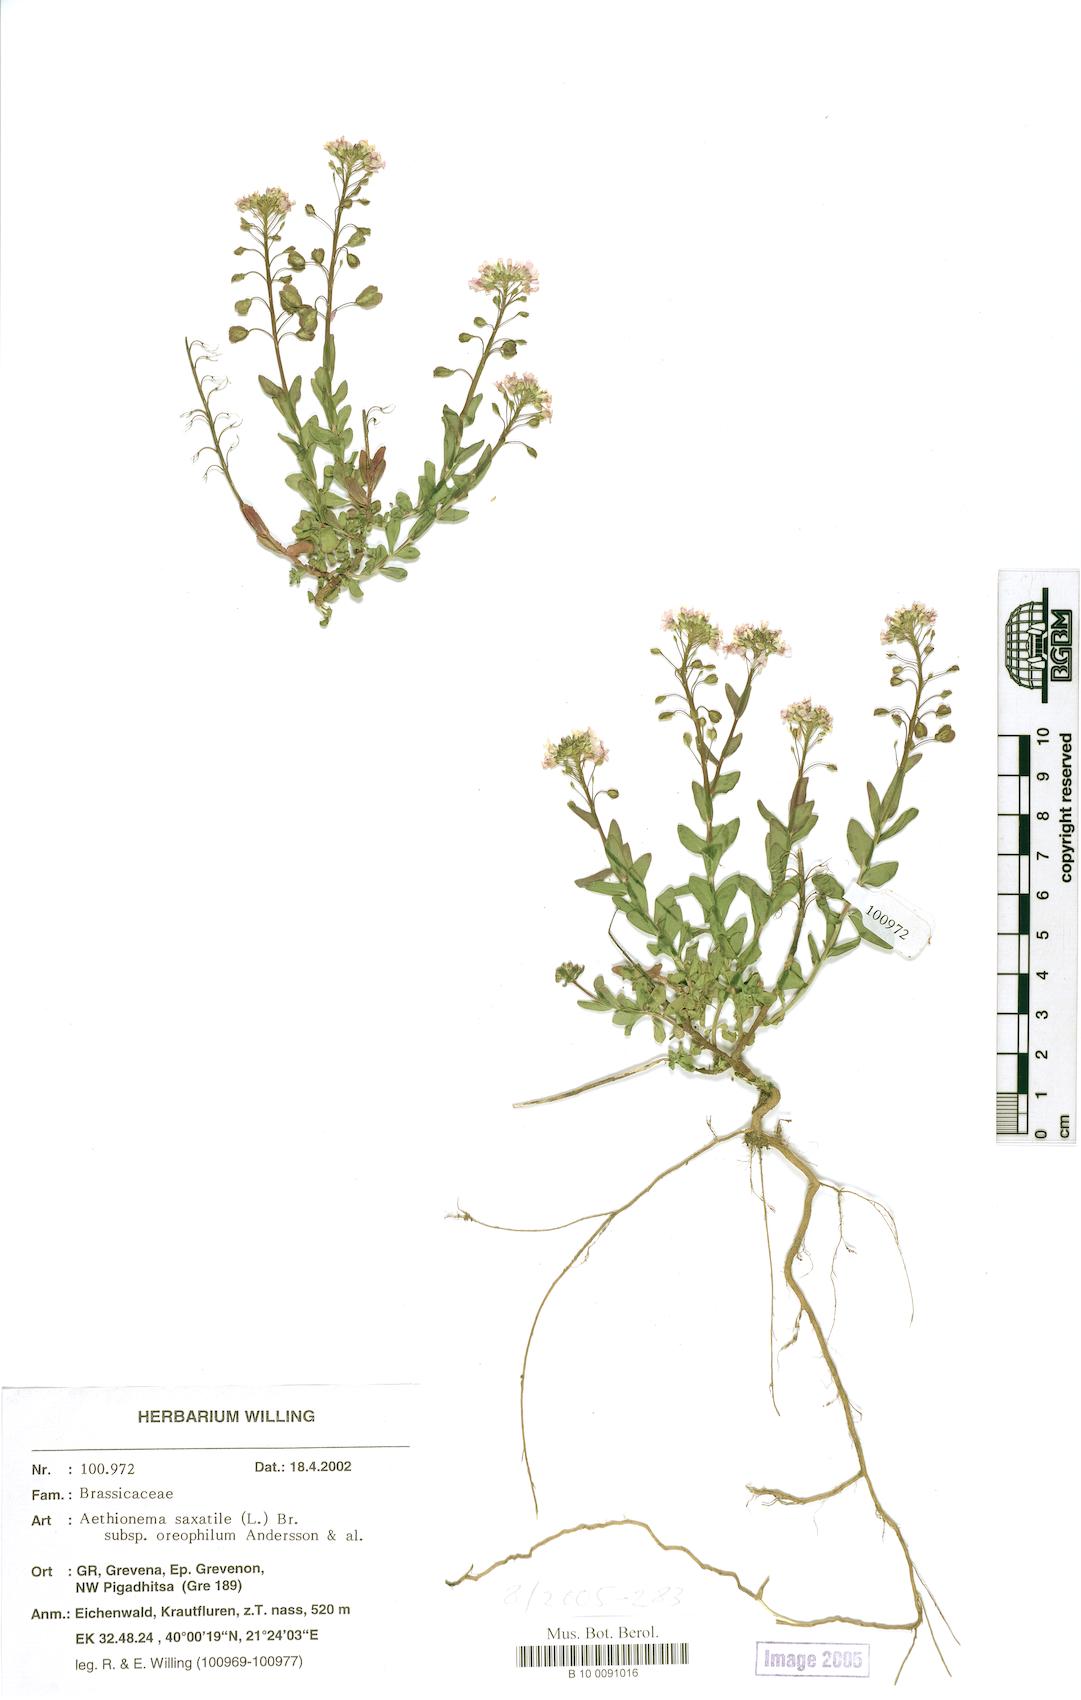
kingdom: Plantae
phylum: Tracheophyta
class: Magnoliopsida
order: Brassicales
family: Brassicaceae
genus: Aethionema
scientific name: Aethionema saxatile
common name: Burnt candytuft
